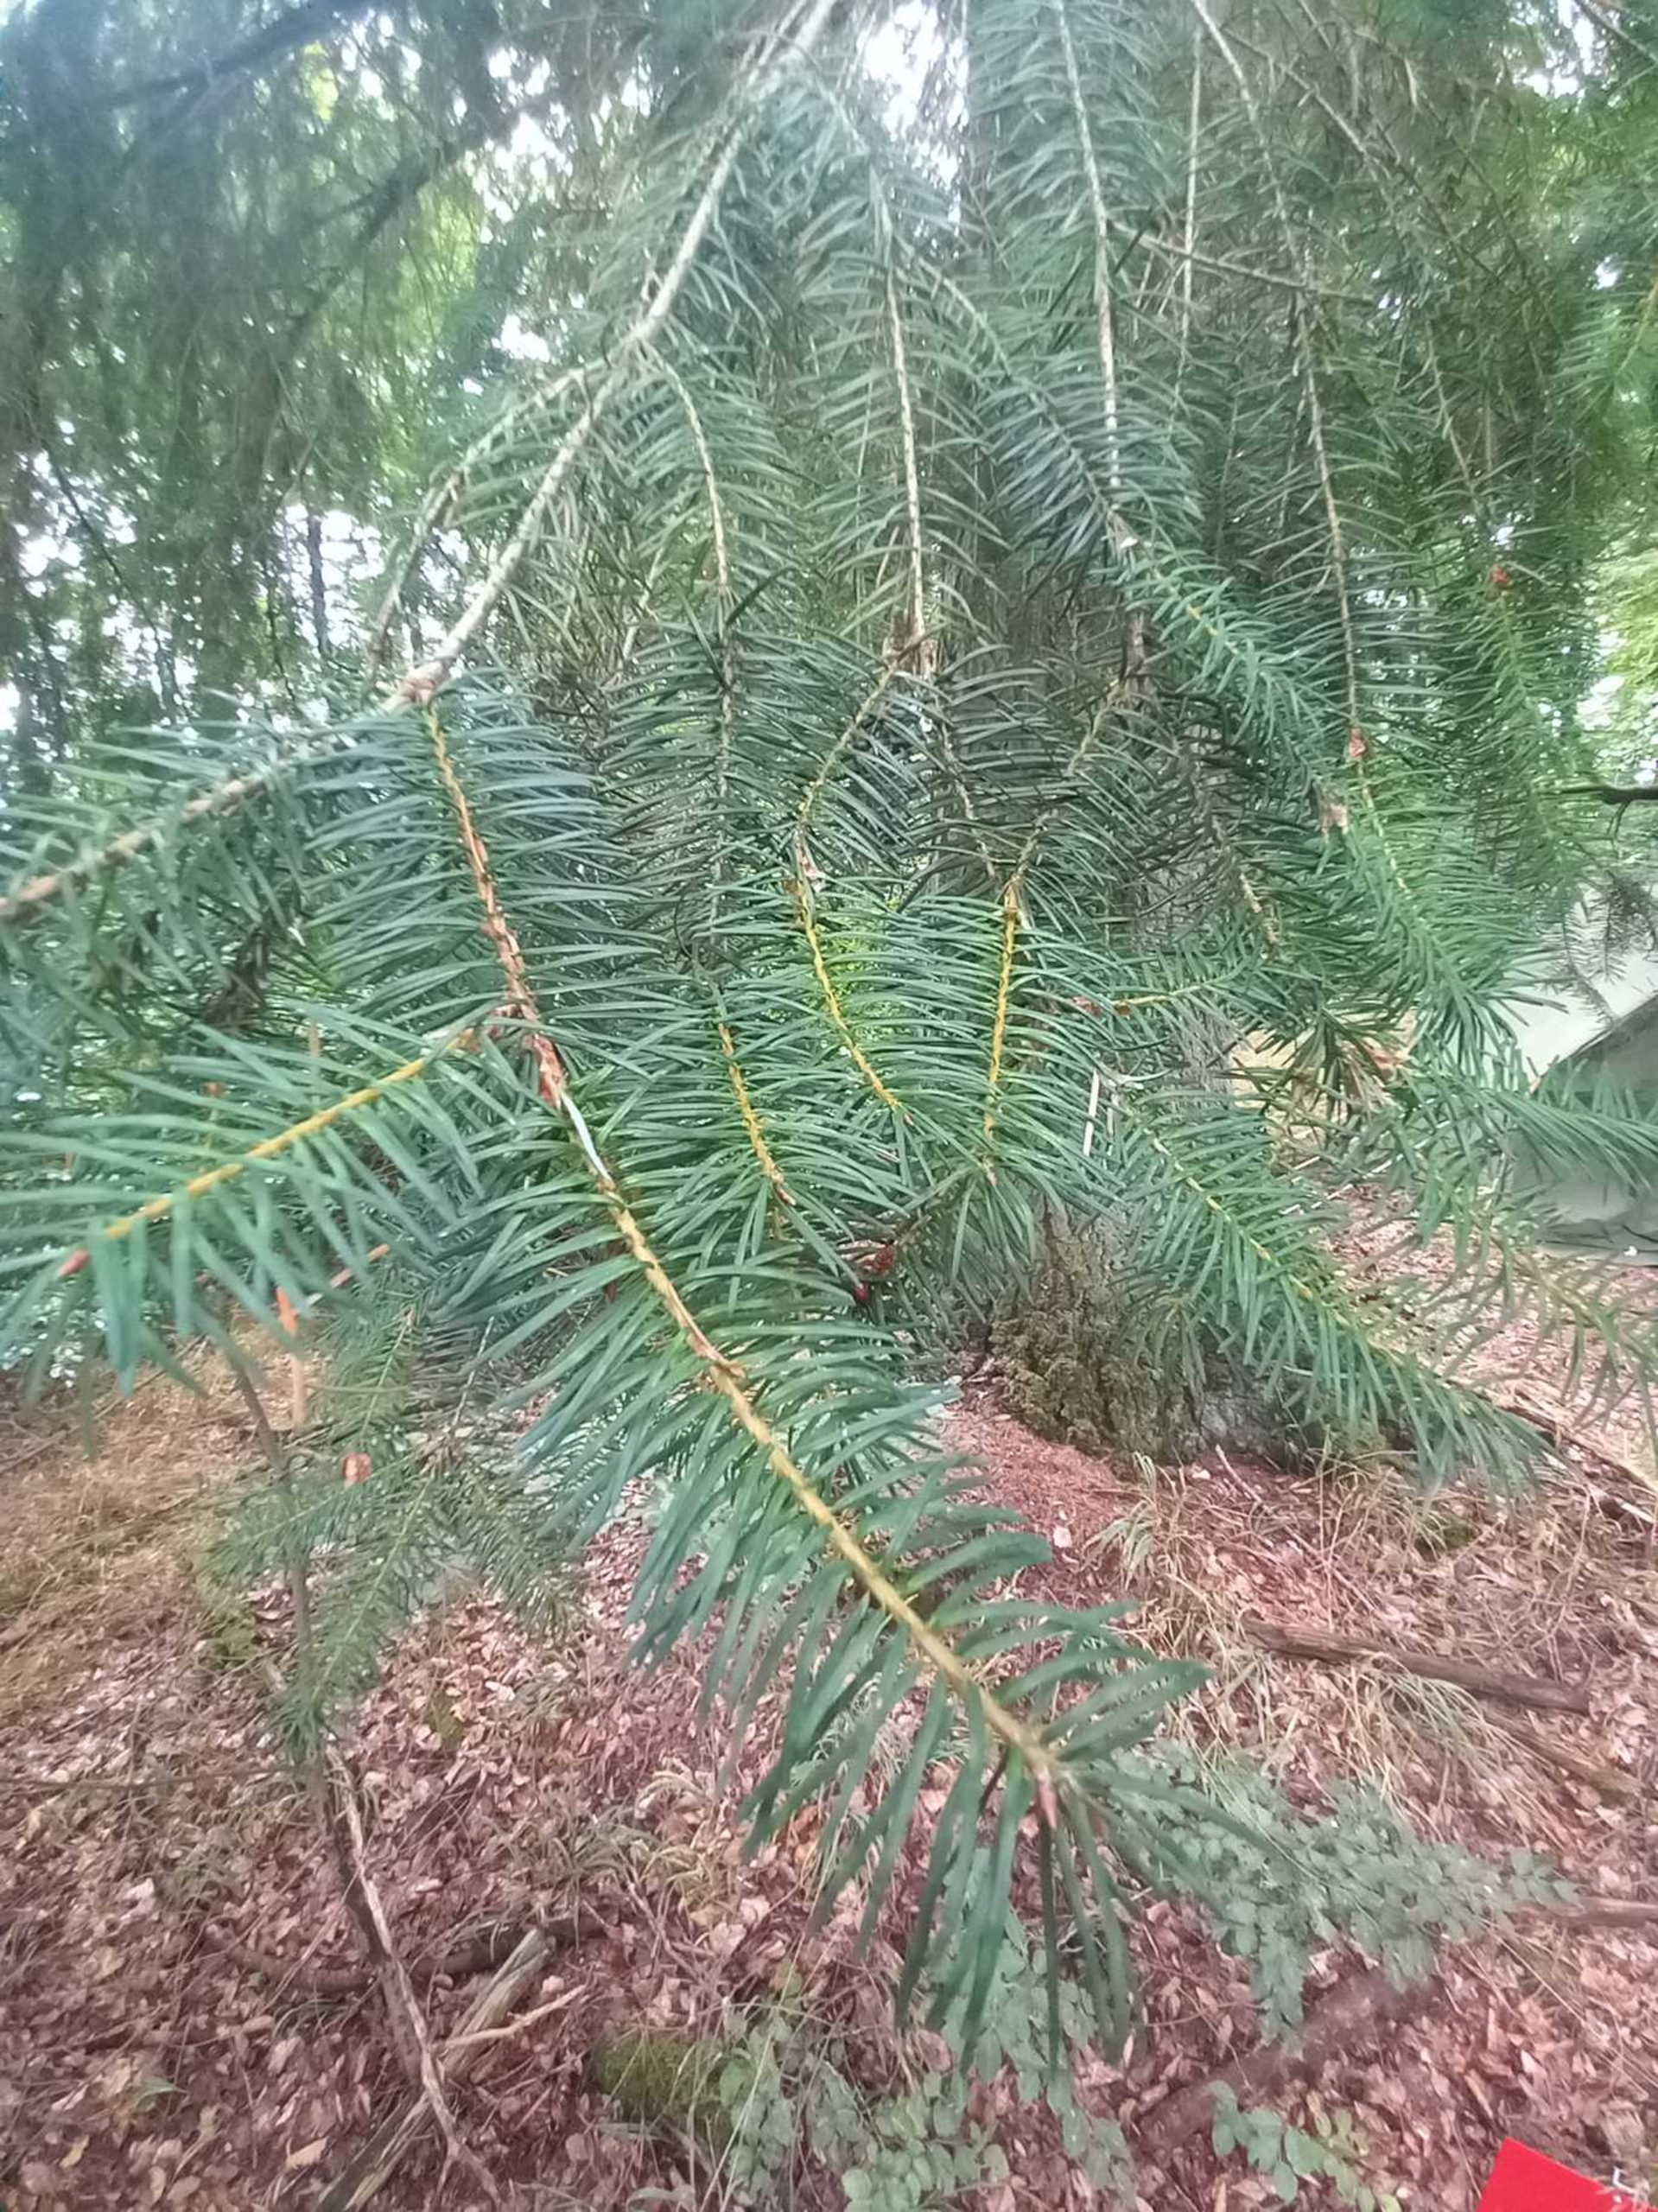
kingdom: Plantae
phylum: Tracheophyta
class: Pinopsida
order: Pinales
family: Pinaceae
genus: Pseudotsuga
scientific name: Pseudotsuga menziesii
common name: Douglasgran
